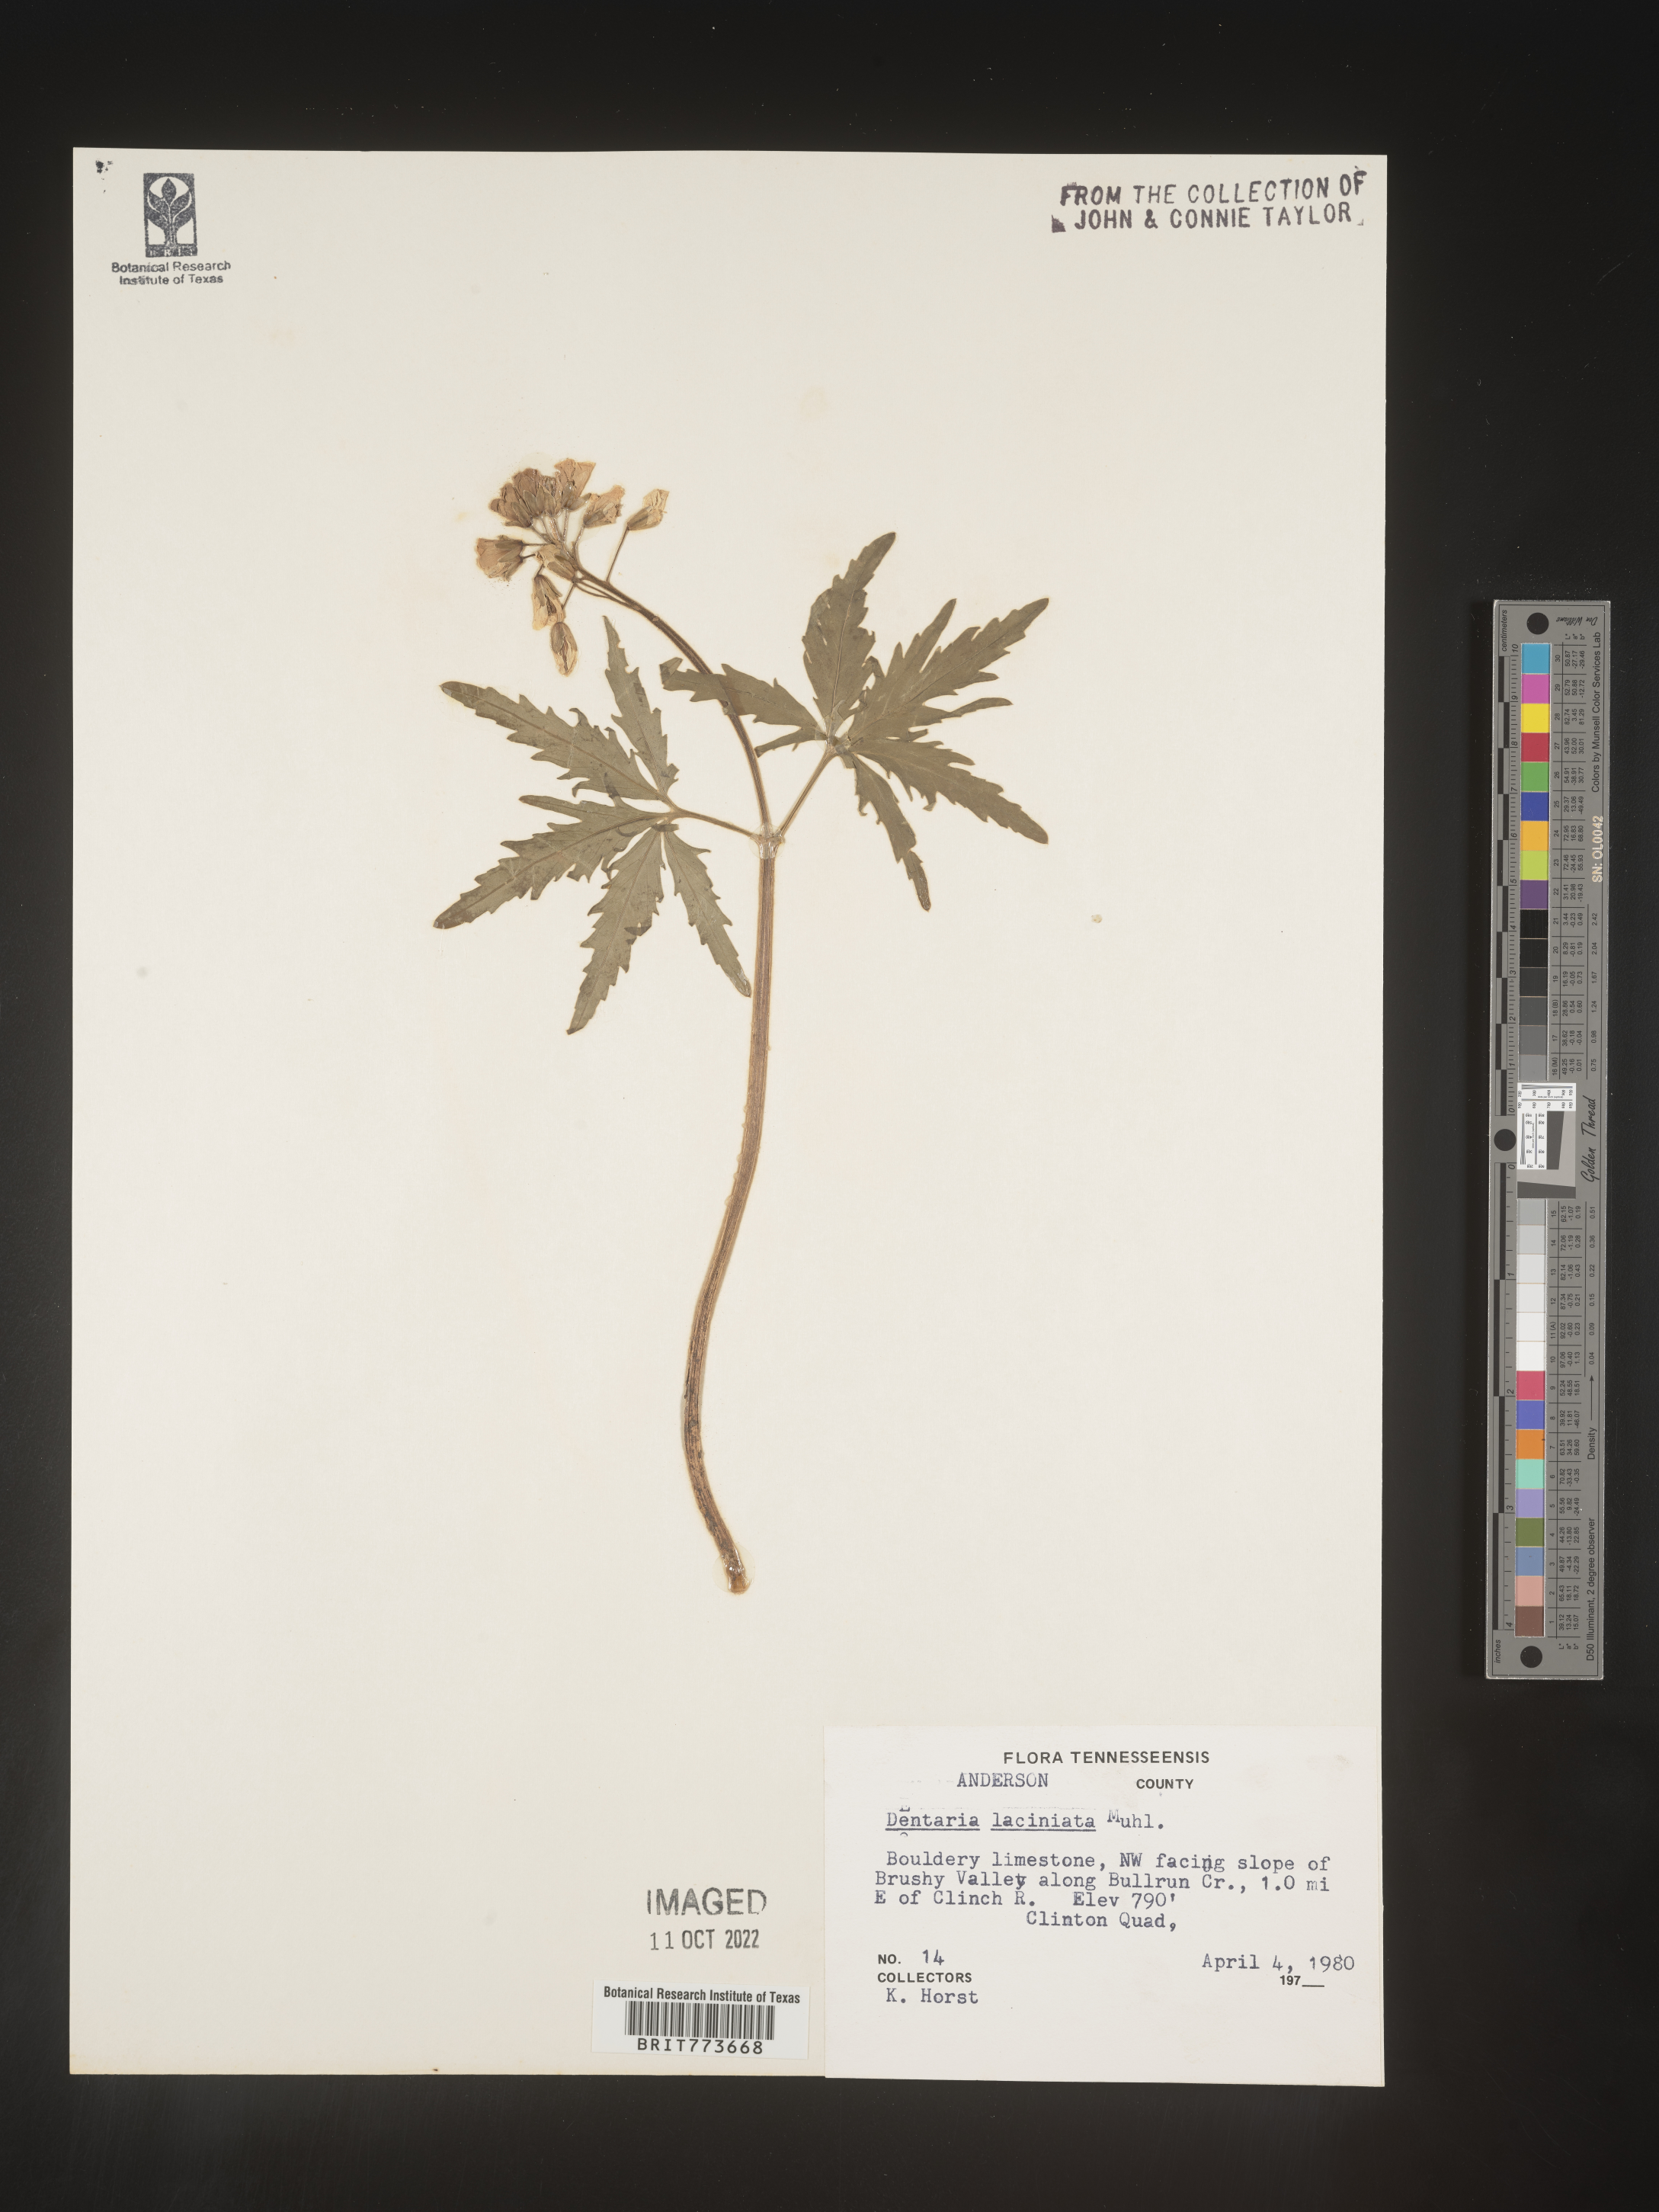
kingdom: Plantae
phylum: Tracheophyta
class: Magnoliopsida
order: Brassicales
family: Brassicaceae
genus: Rorippa
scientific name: Rorippa laciniata
